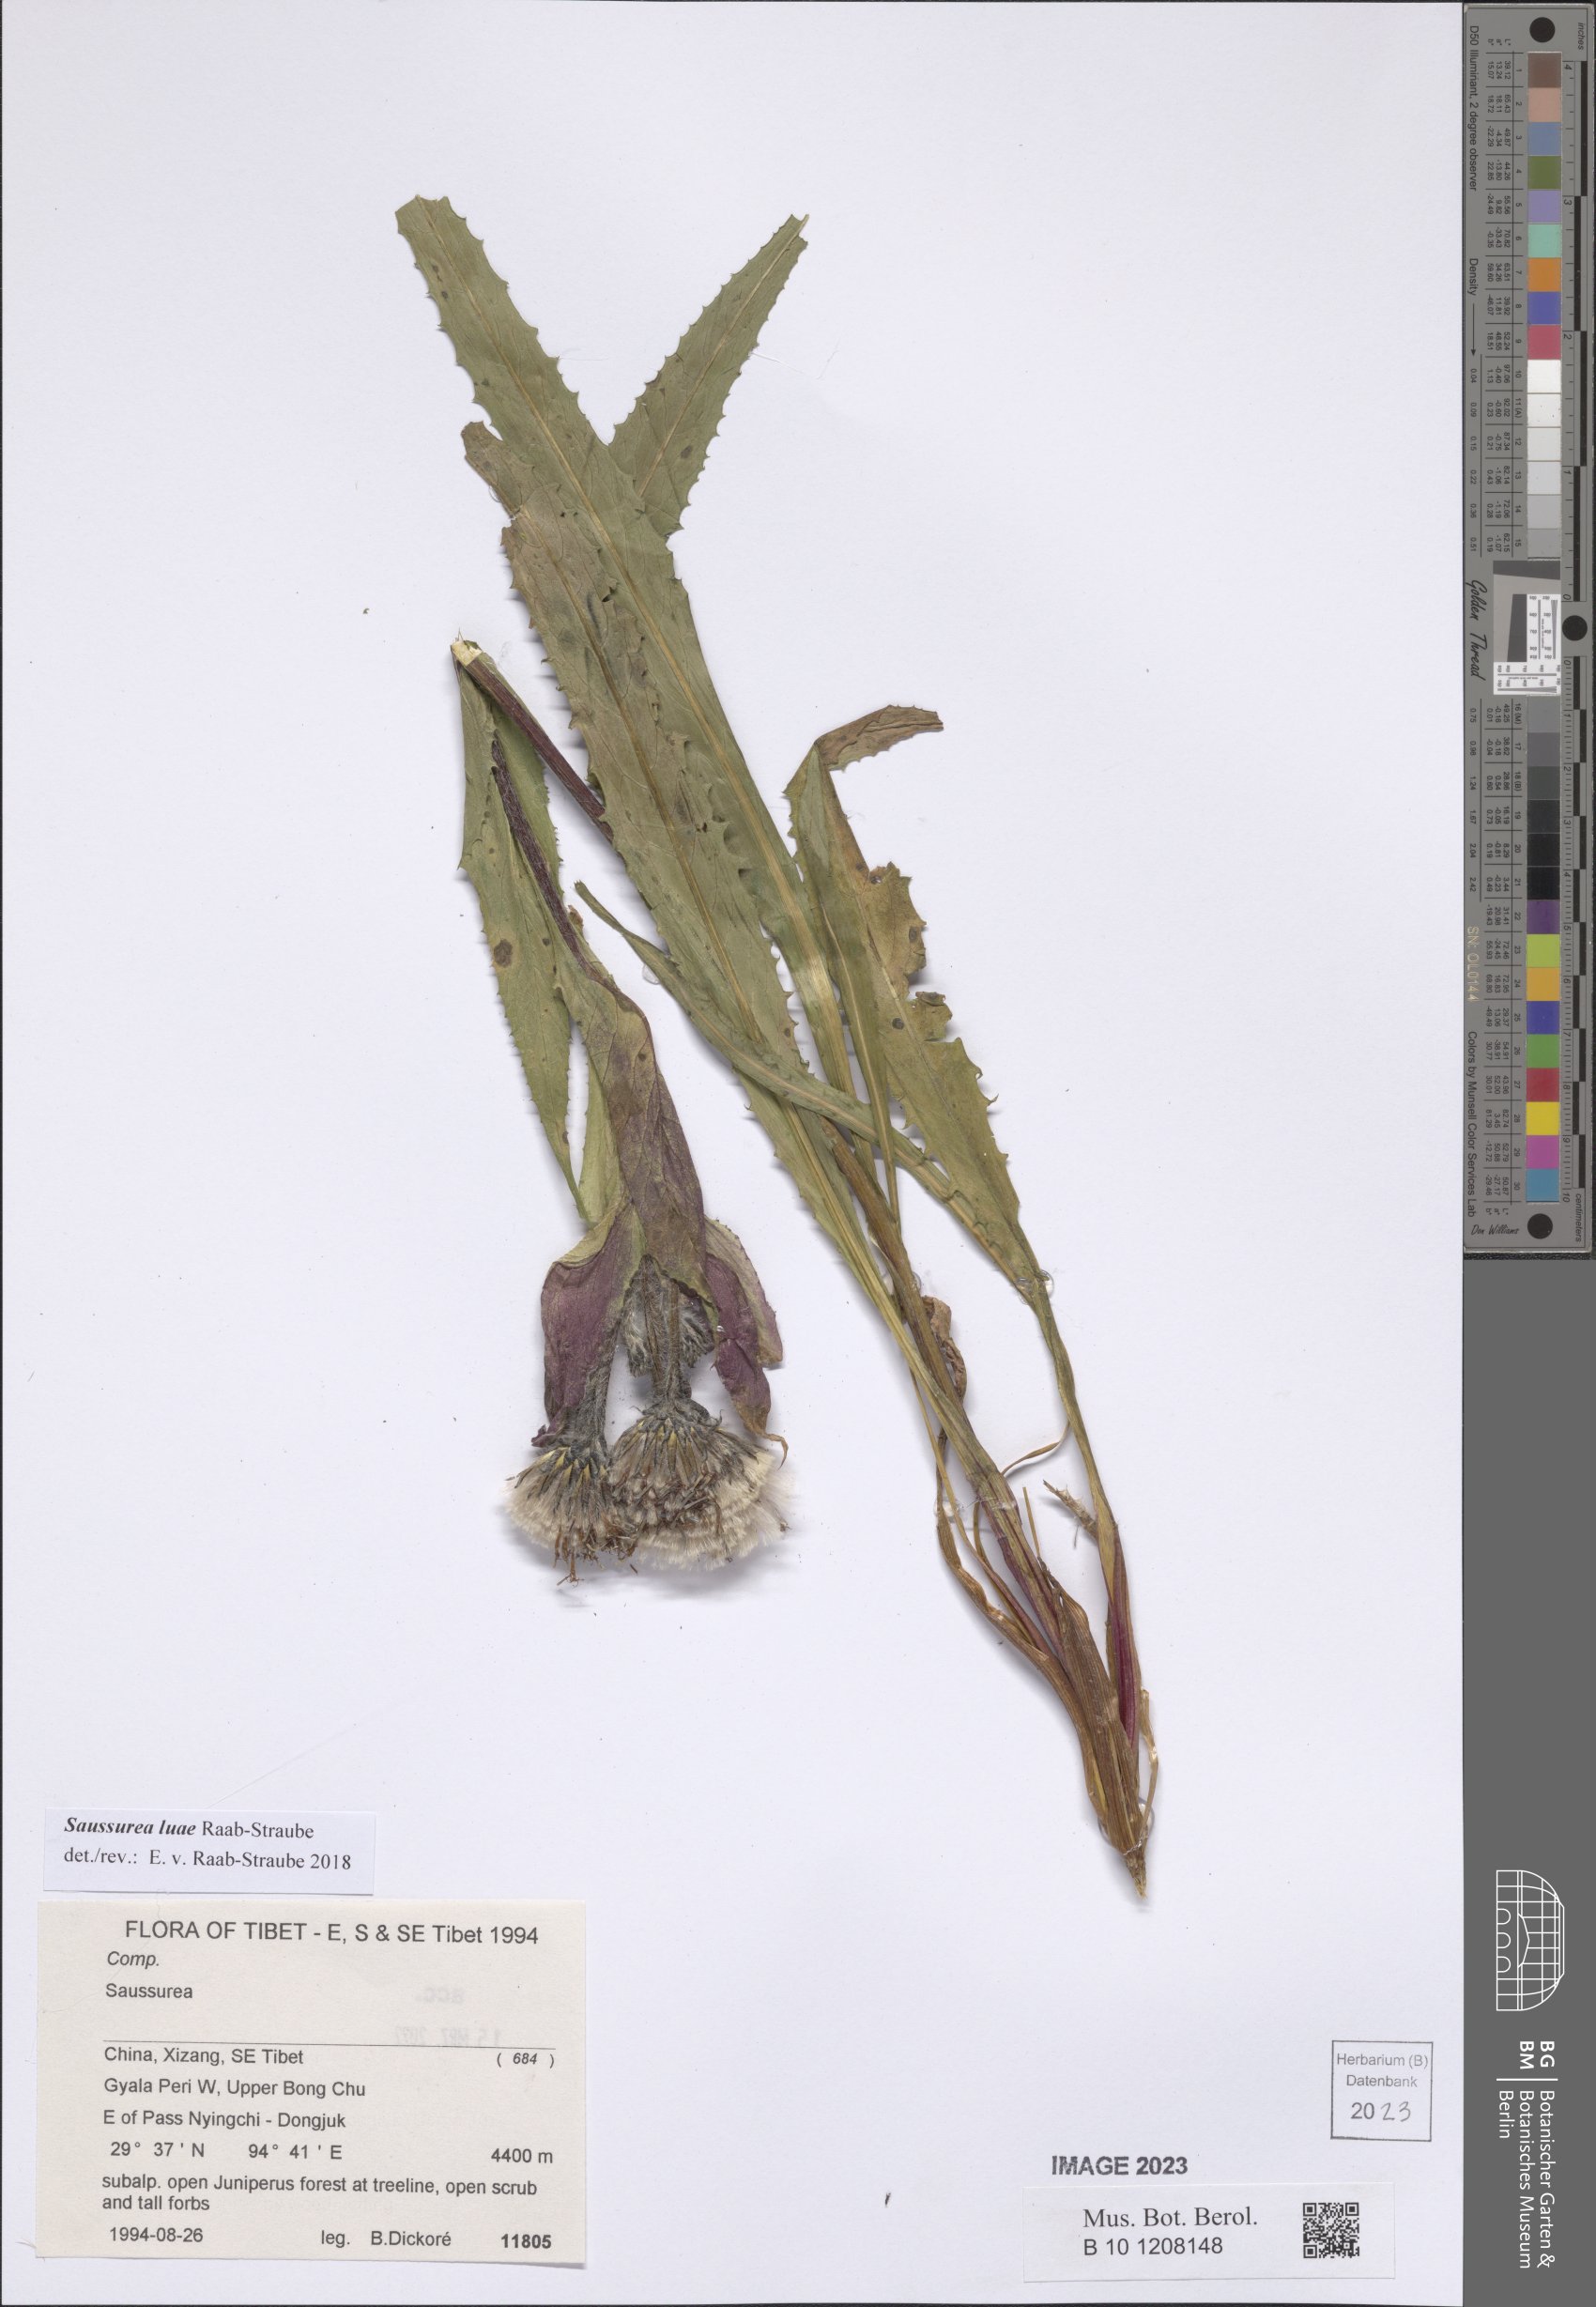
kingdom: Plantae
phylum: Tracheophyta
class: Magnoliopsida
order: Asterales
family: Asteraceae
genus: Saussurea
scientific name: Saussurea luae
